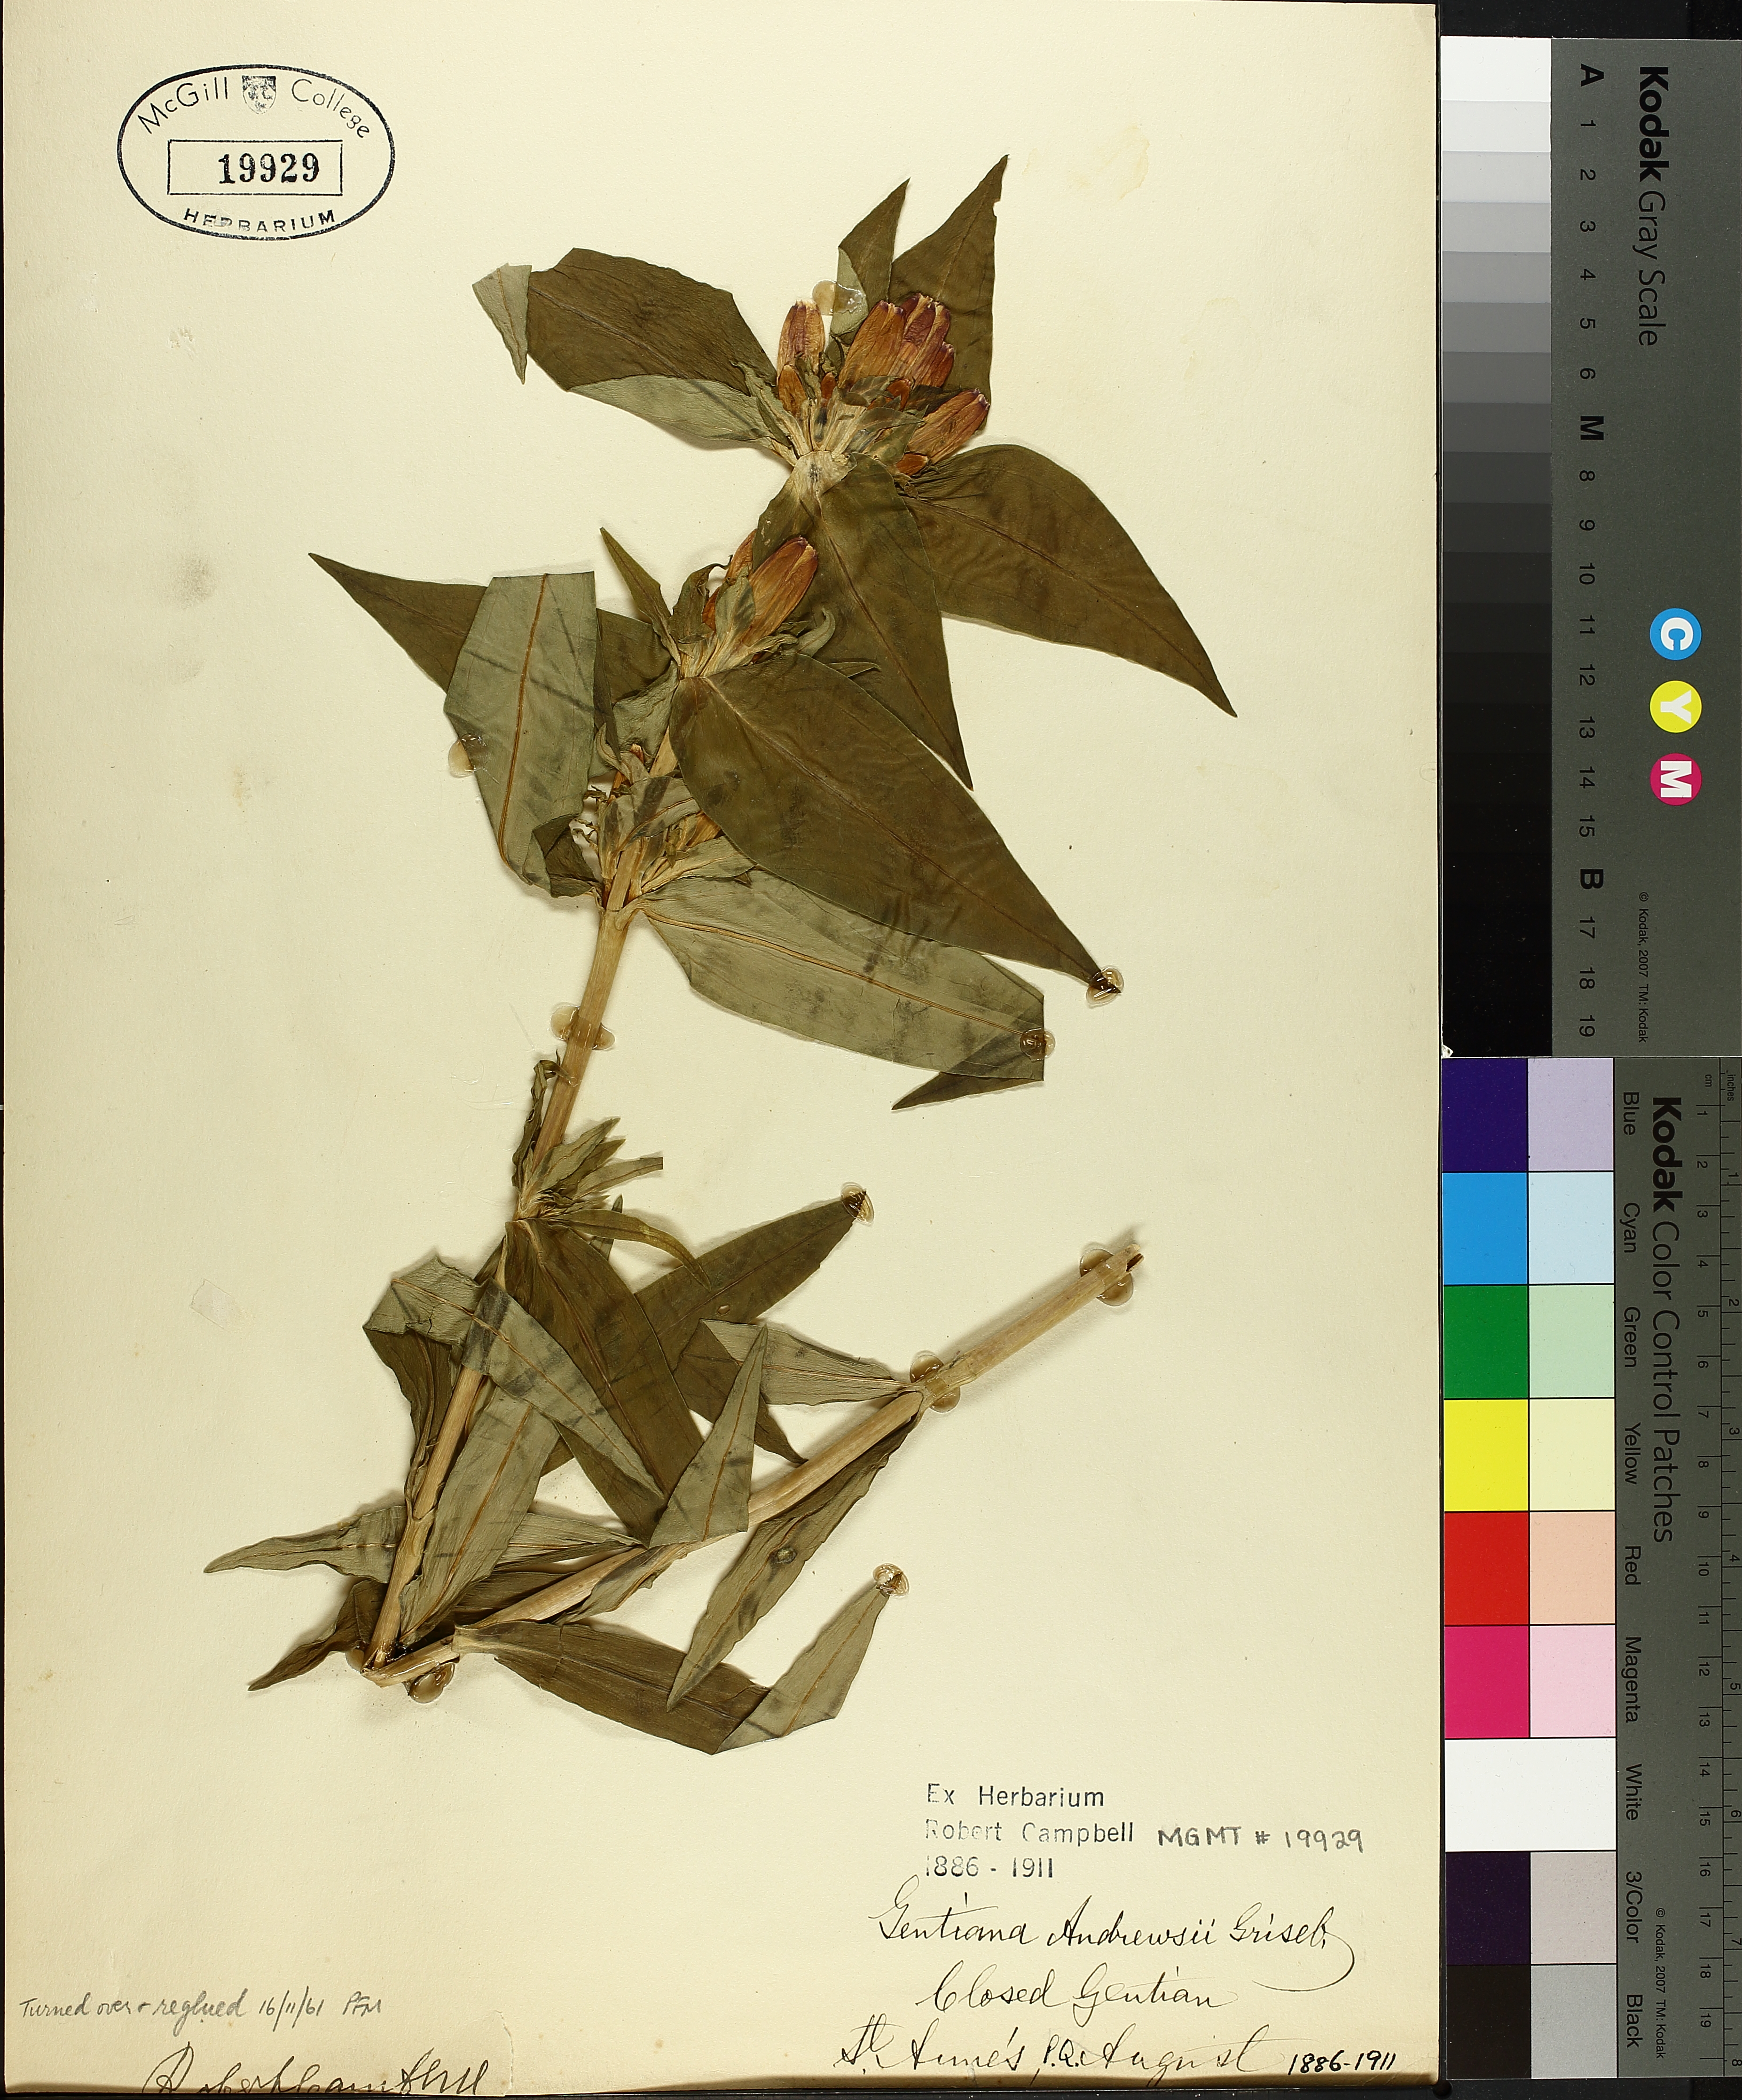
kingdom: Plantae
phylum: Tracheophyta
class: Magnoliopsida
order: Gentianales
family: Gentianaceae
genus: Gentiana
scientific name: Gentiana andrewsii
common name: Bottle gentian
